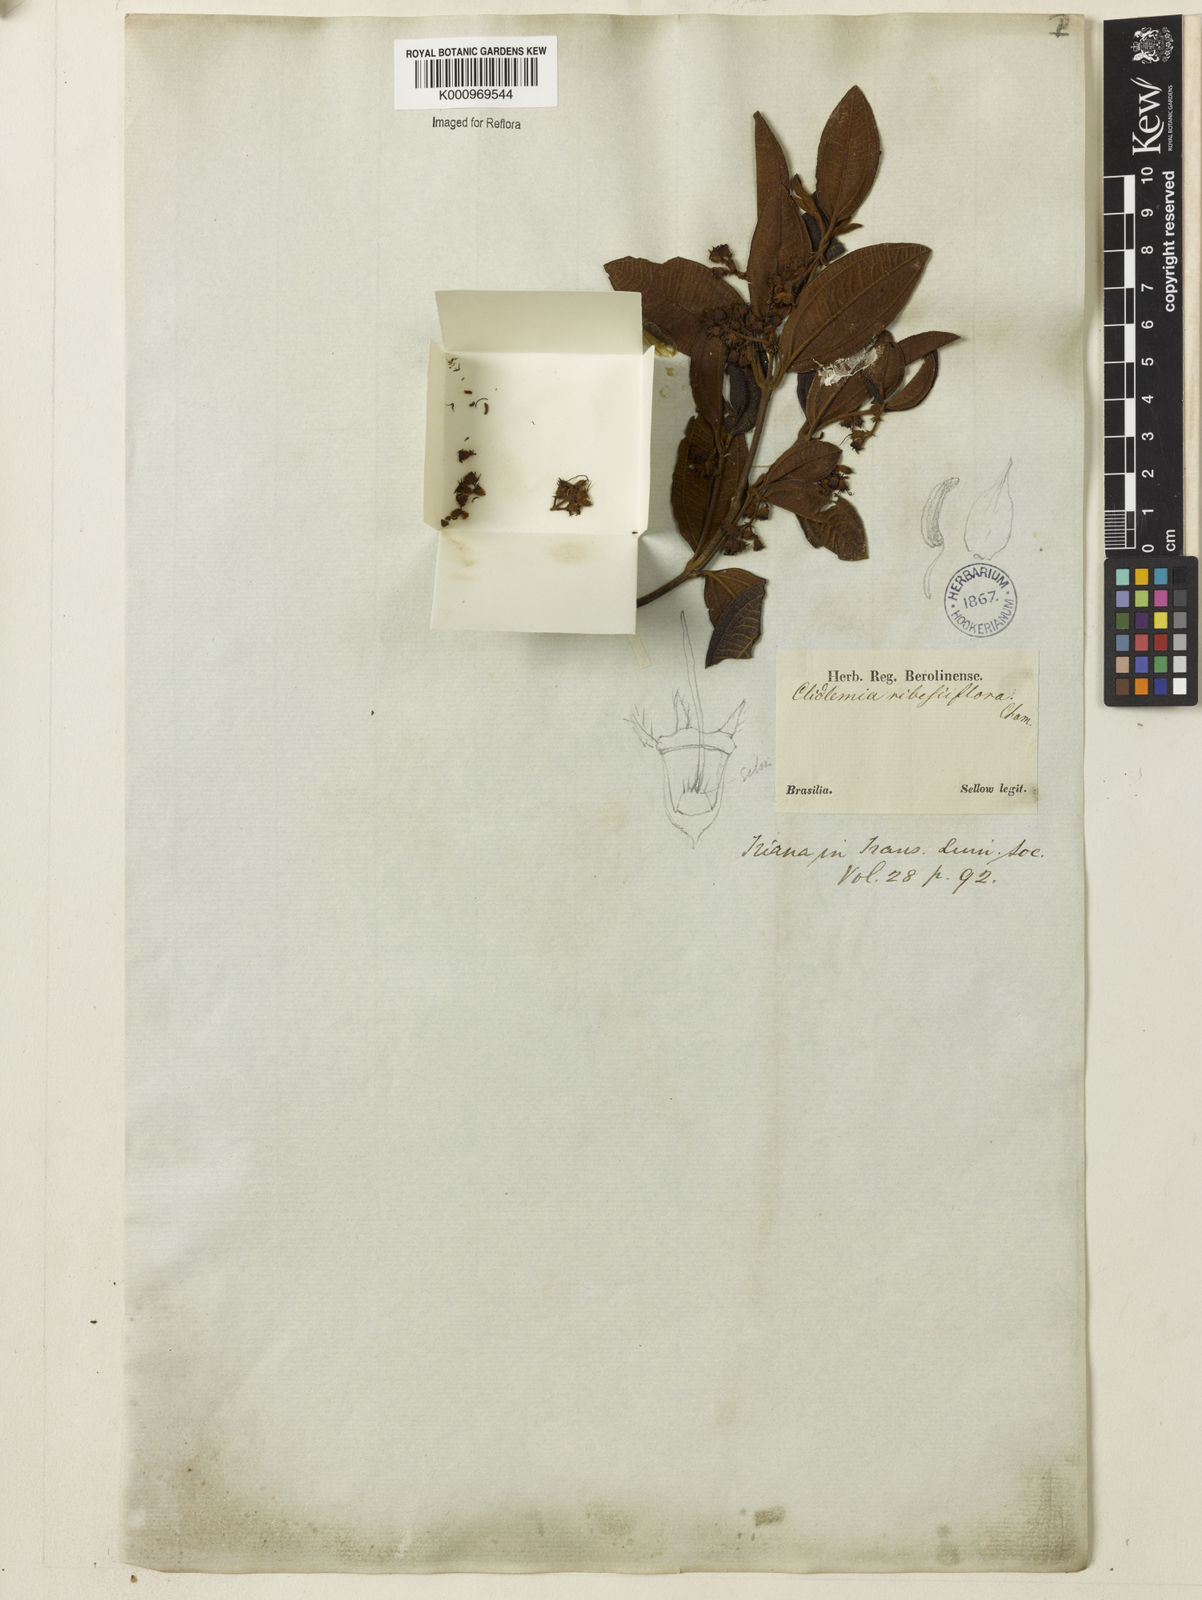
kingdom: Plantae
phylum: Tracheophyta
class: Magnoliopsida
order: Myrtales
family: Melastomataceae
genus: Miconia
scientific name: Miconia Leandra ribesiaeflora
